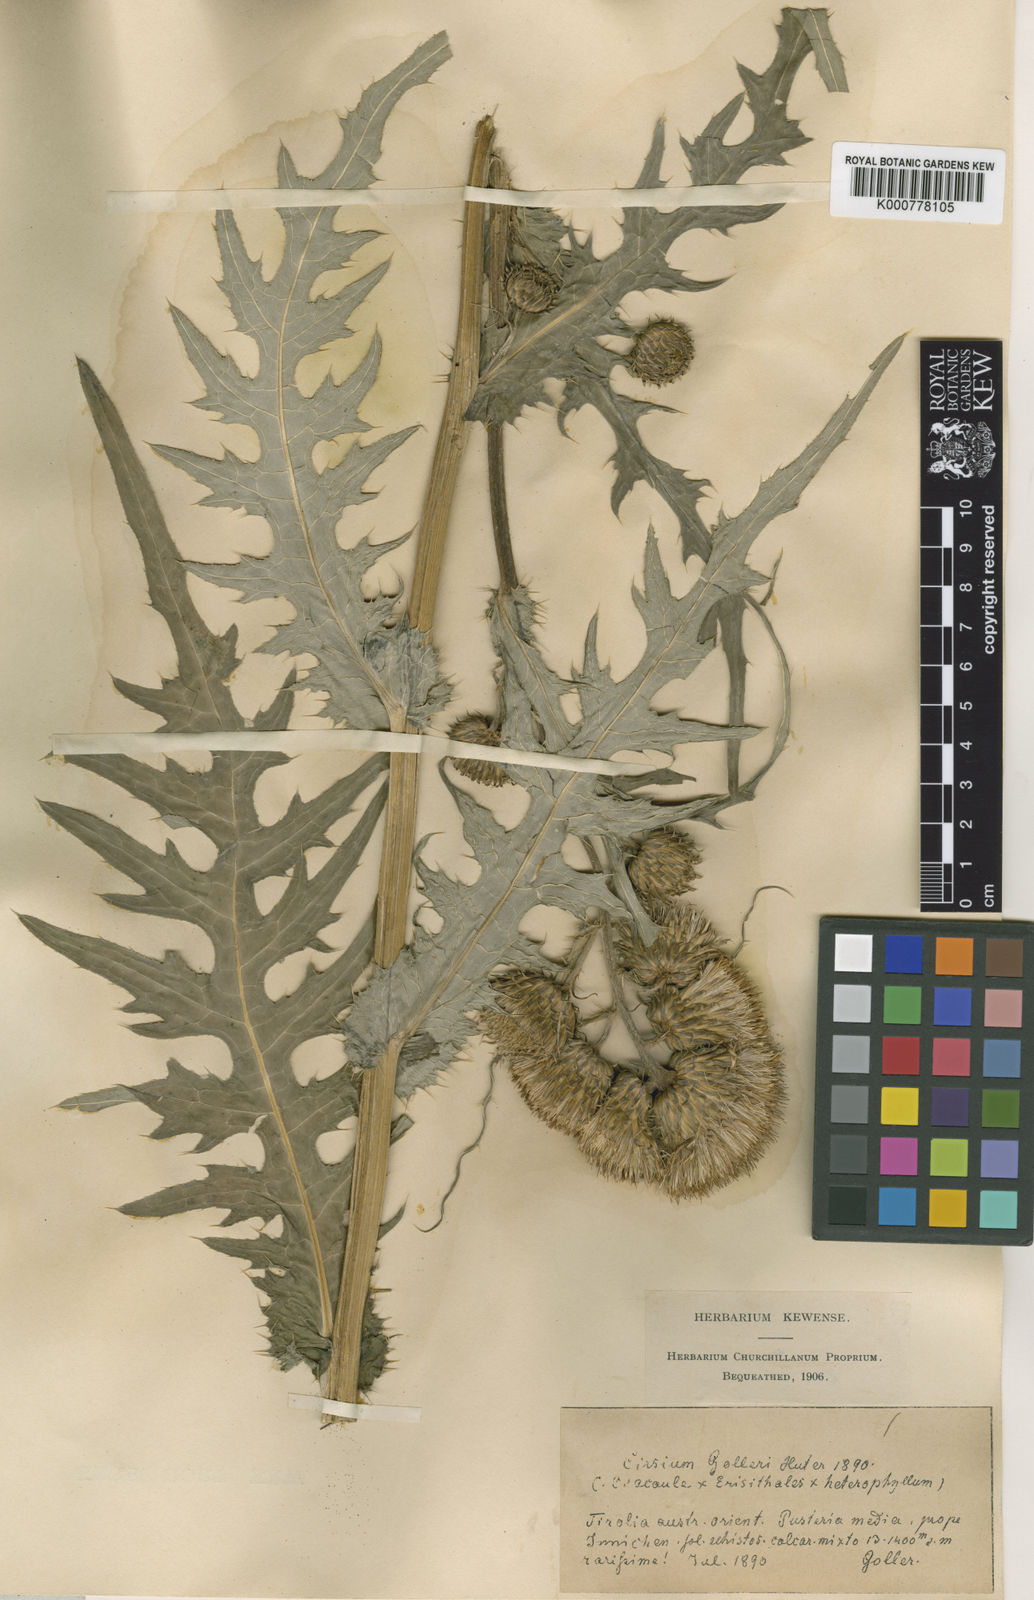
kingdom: Plantae
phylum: Tracheophyta
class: Magnoliopsida
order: Asterales
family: Asteraceae
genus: Cirsium
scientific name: Cirsium
